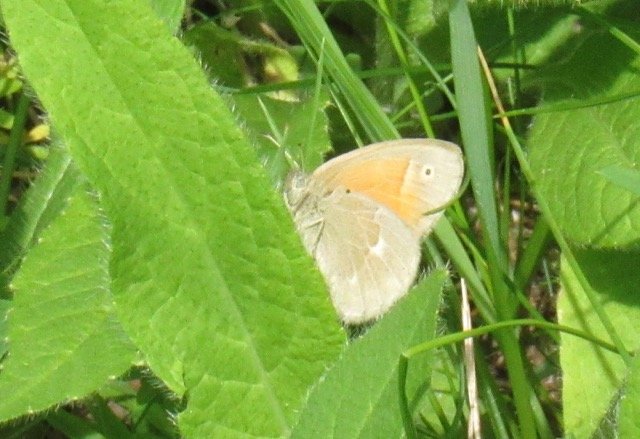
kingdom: Animalia
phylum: Arthropoda
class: Insecta
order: Lepidoptera
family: Nymphalidae
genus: Coenonympha
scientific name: Coenonympha tullia
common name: Large Heath
